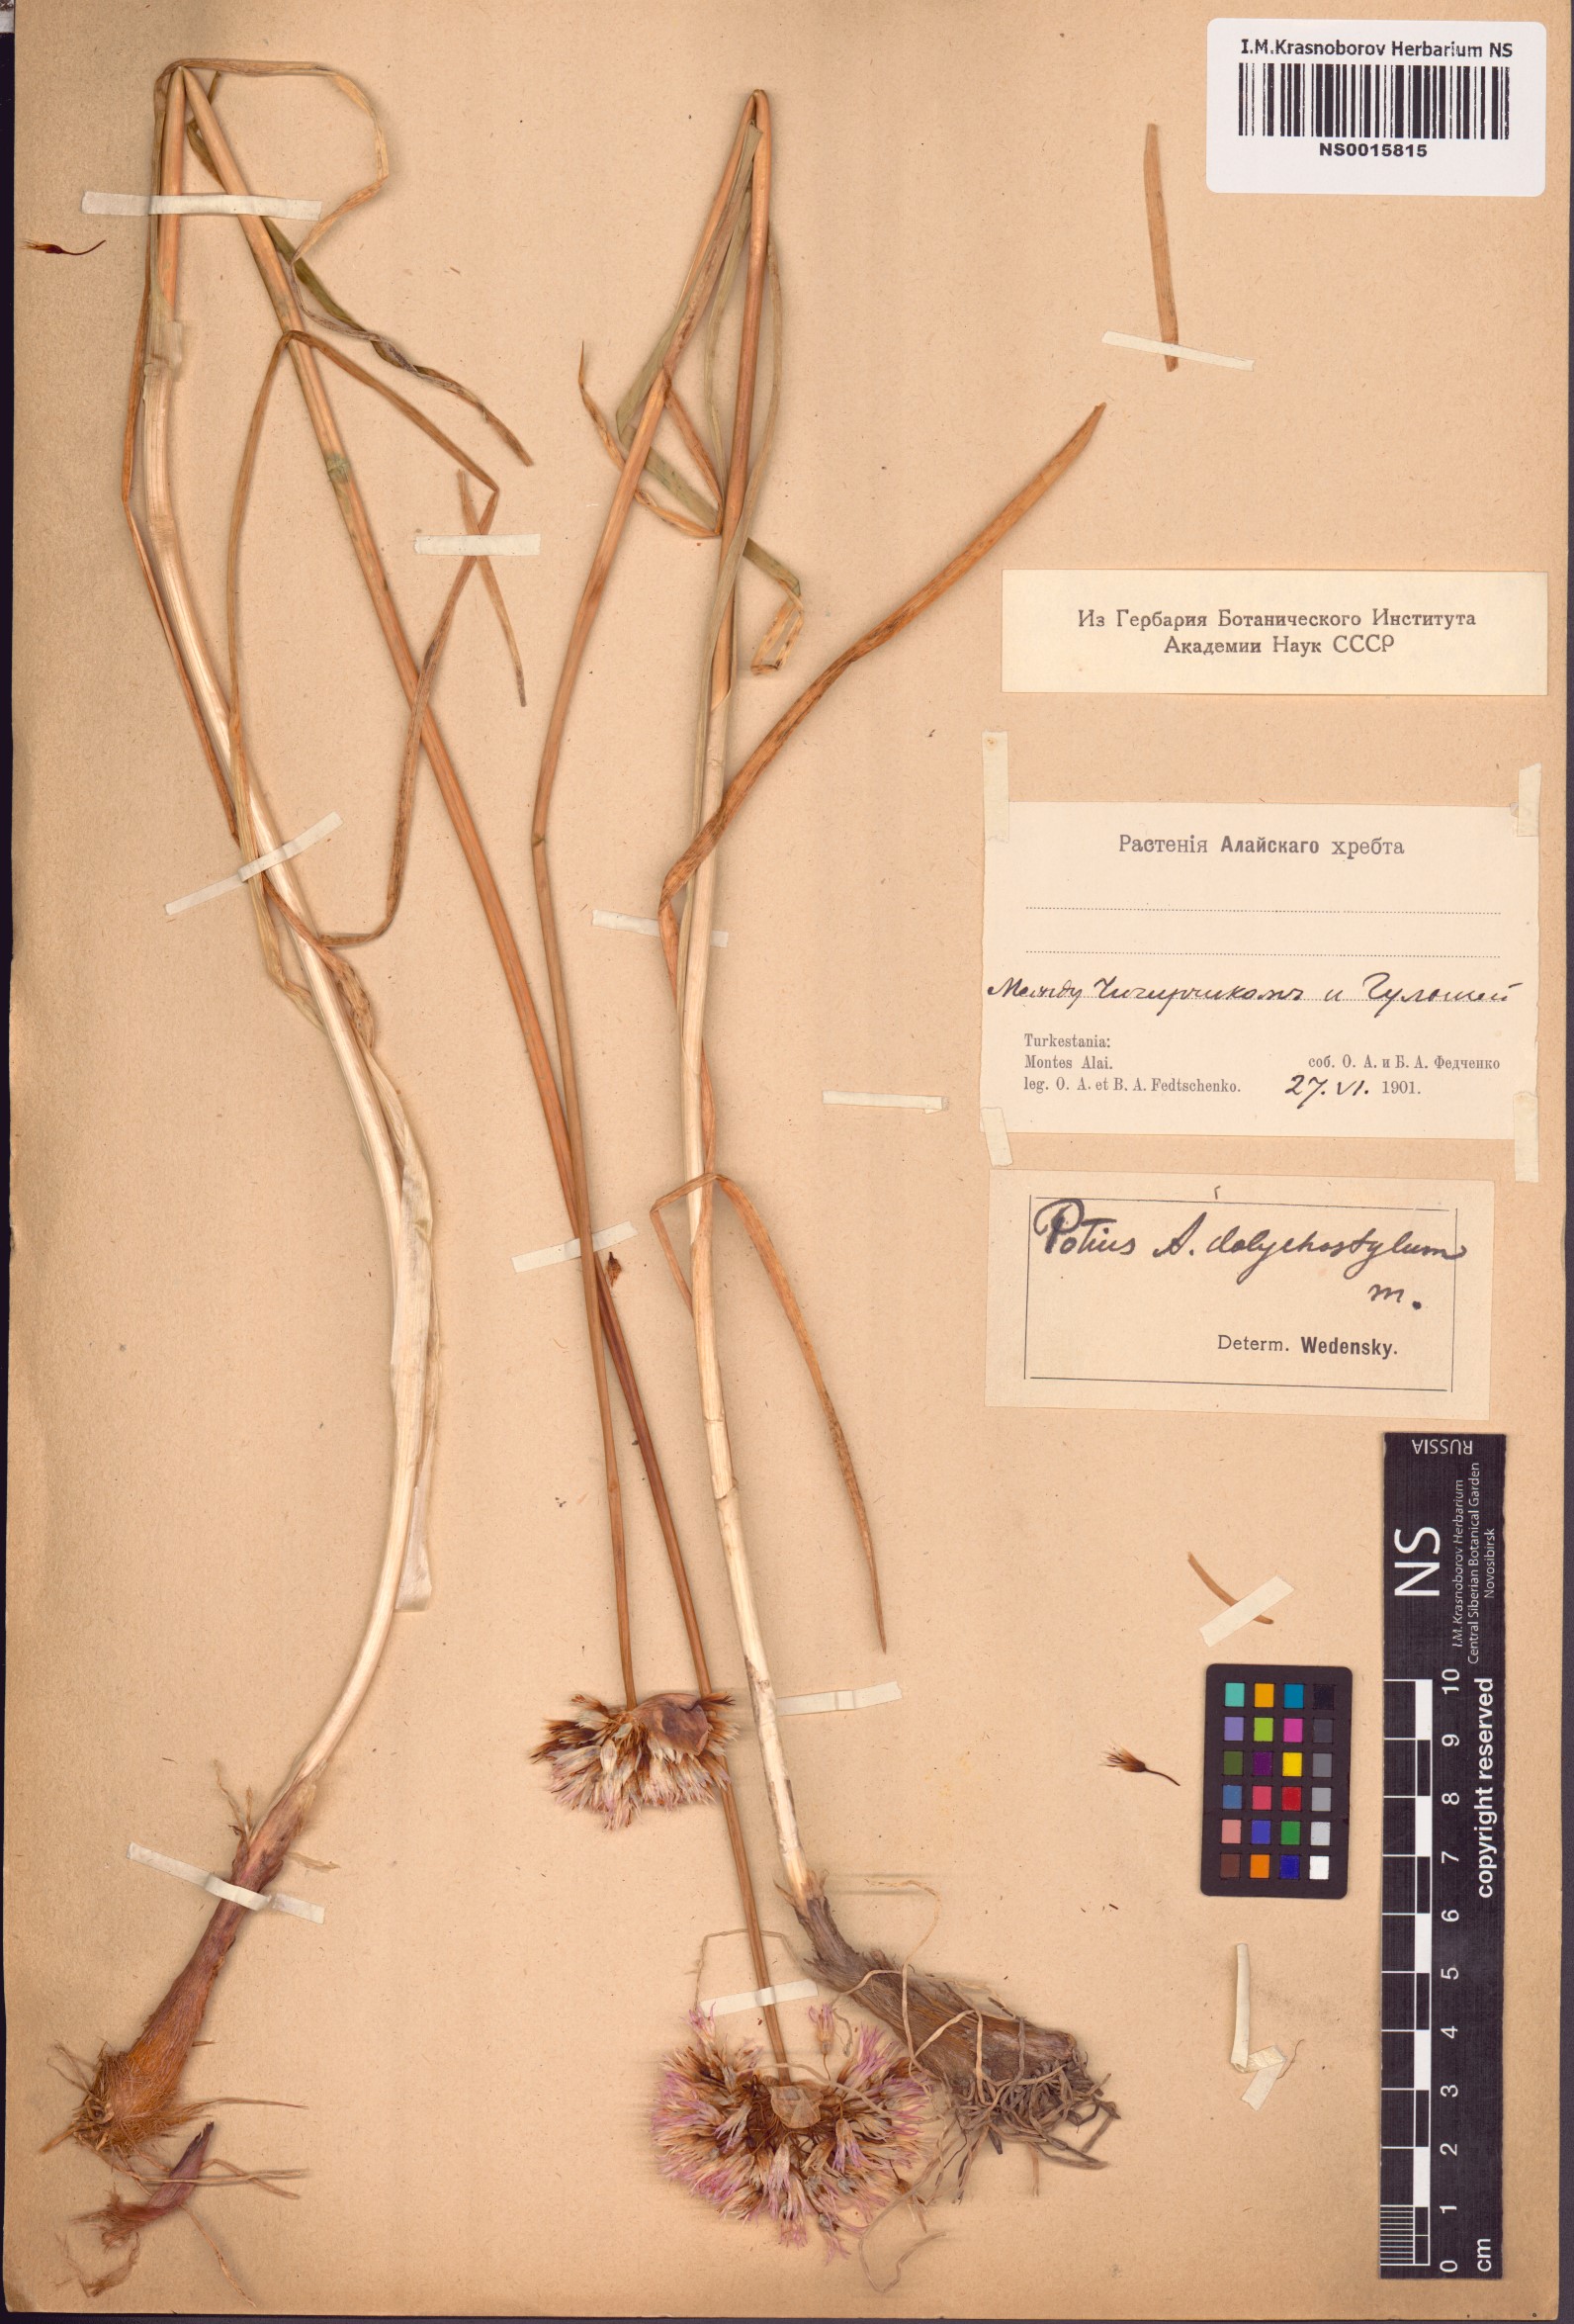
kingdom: Plantae
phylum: Tracheophyta
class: Liliopsida
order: Asparagales
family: Amaryllidaceae
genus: Allium
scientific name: Allium dolichostylum
